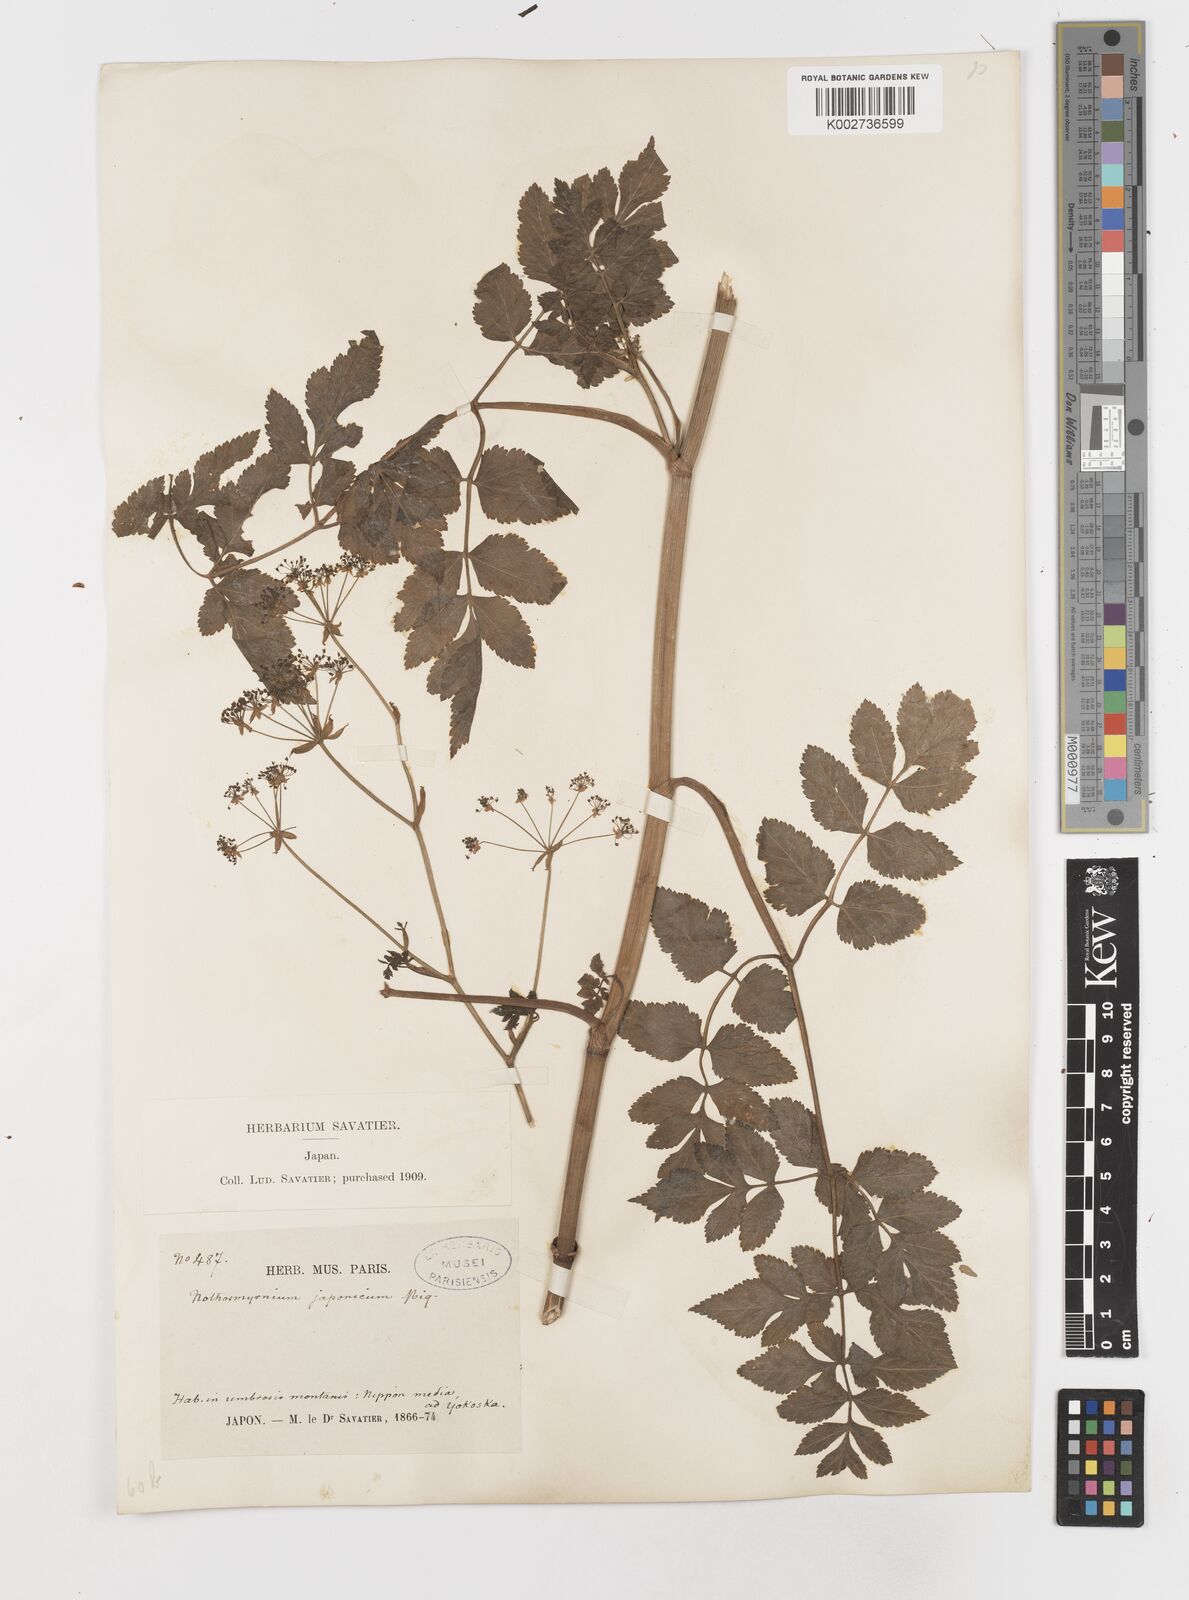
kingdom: Plantae
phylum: Tracheophyta
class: Magnoliopsida
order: Apiales
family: Apiaceae
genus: Nothosmyrnium
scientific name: Nothosmyrnium japonicum
